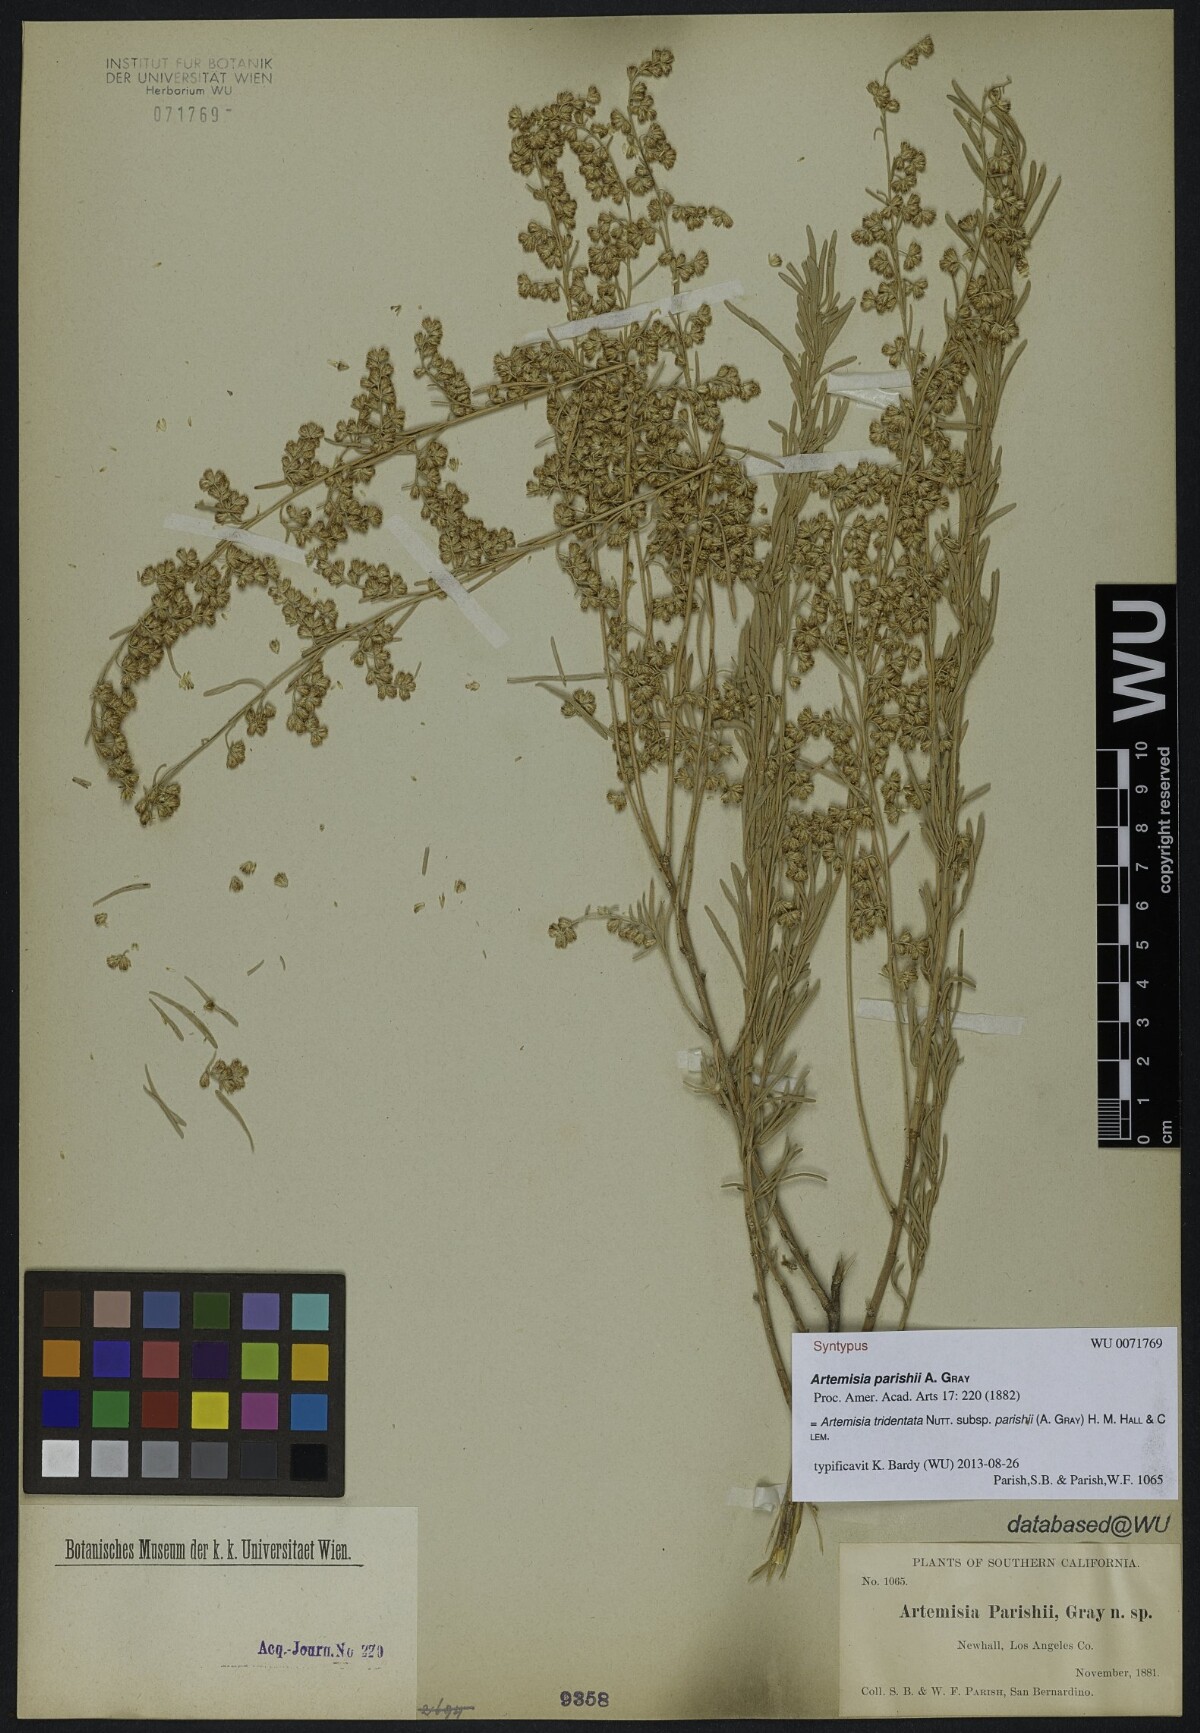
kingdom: Plantae
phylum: Tracheophyta
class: Magnoliopsida
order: Asterales
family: Asteraceae
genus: Artemisia
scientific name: Artemisia tridentata
